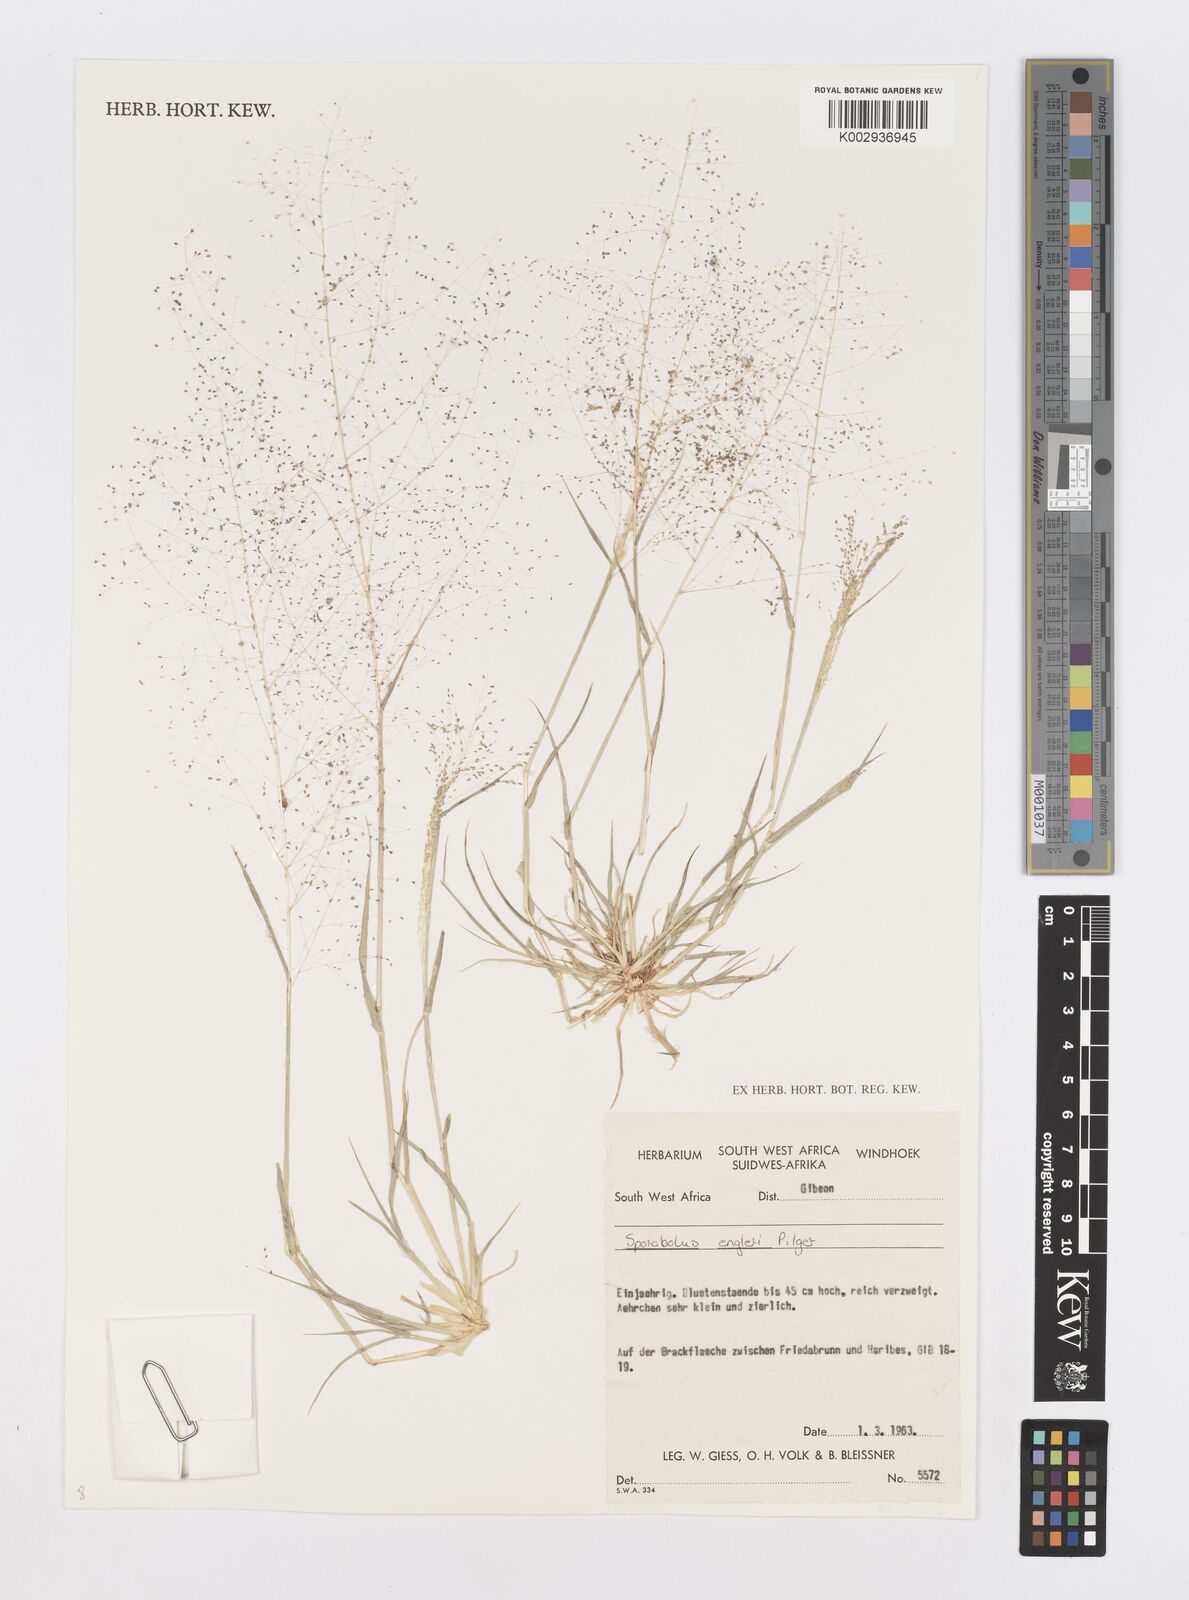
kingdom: Plantae
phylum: Tracheophyta
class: Liliopsida
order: Poales
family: Poaceae
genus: Sporobolus
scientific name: Sporobolus engleri
